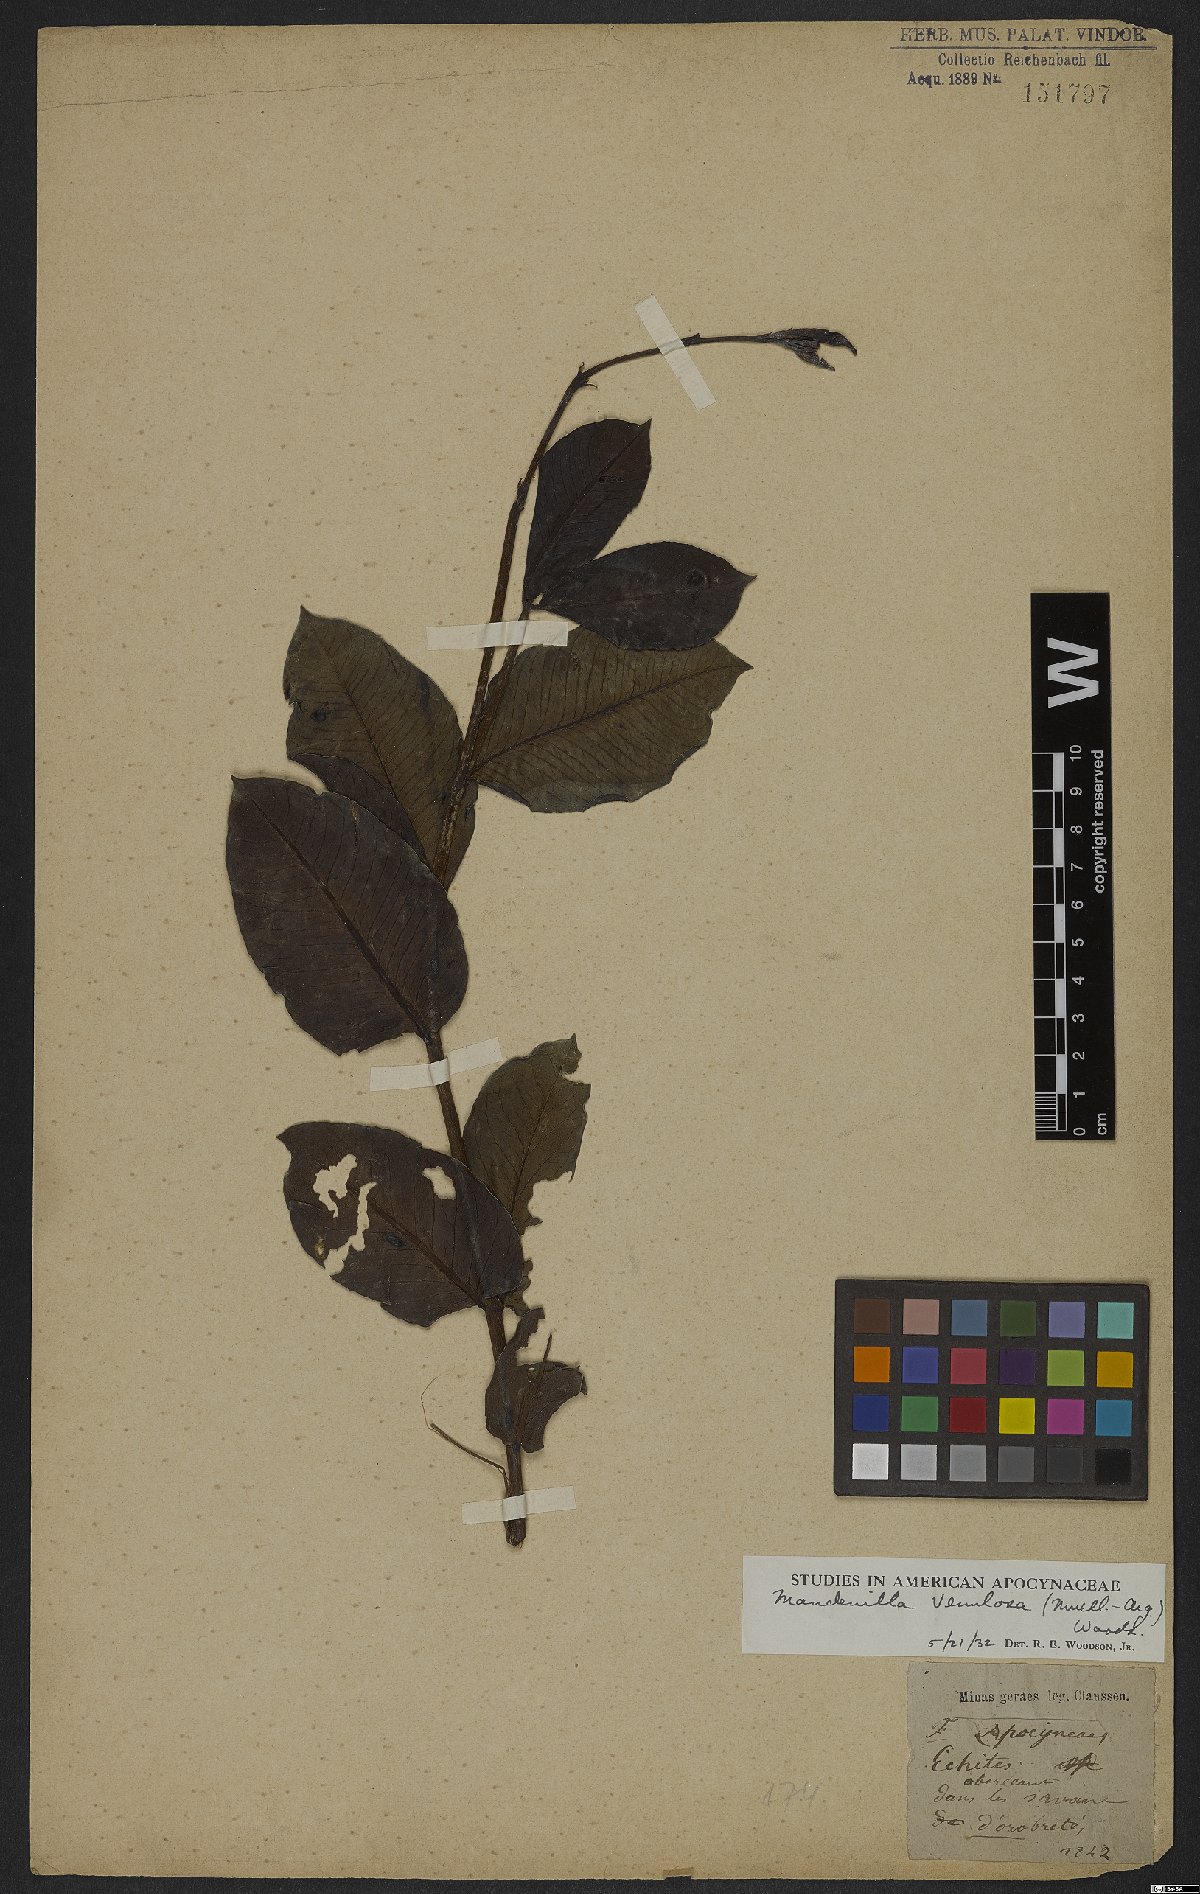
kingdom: Plantae
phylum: Tracheophyta
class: Magnoliopsida
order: Gentianales
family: Apocynaceae
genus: Mandevilla
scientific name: Mandevilla venulosa
